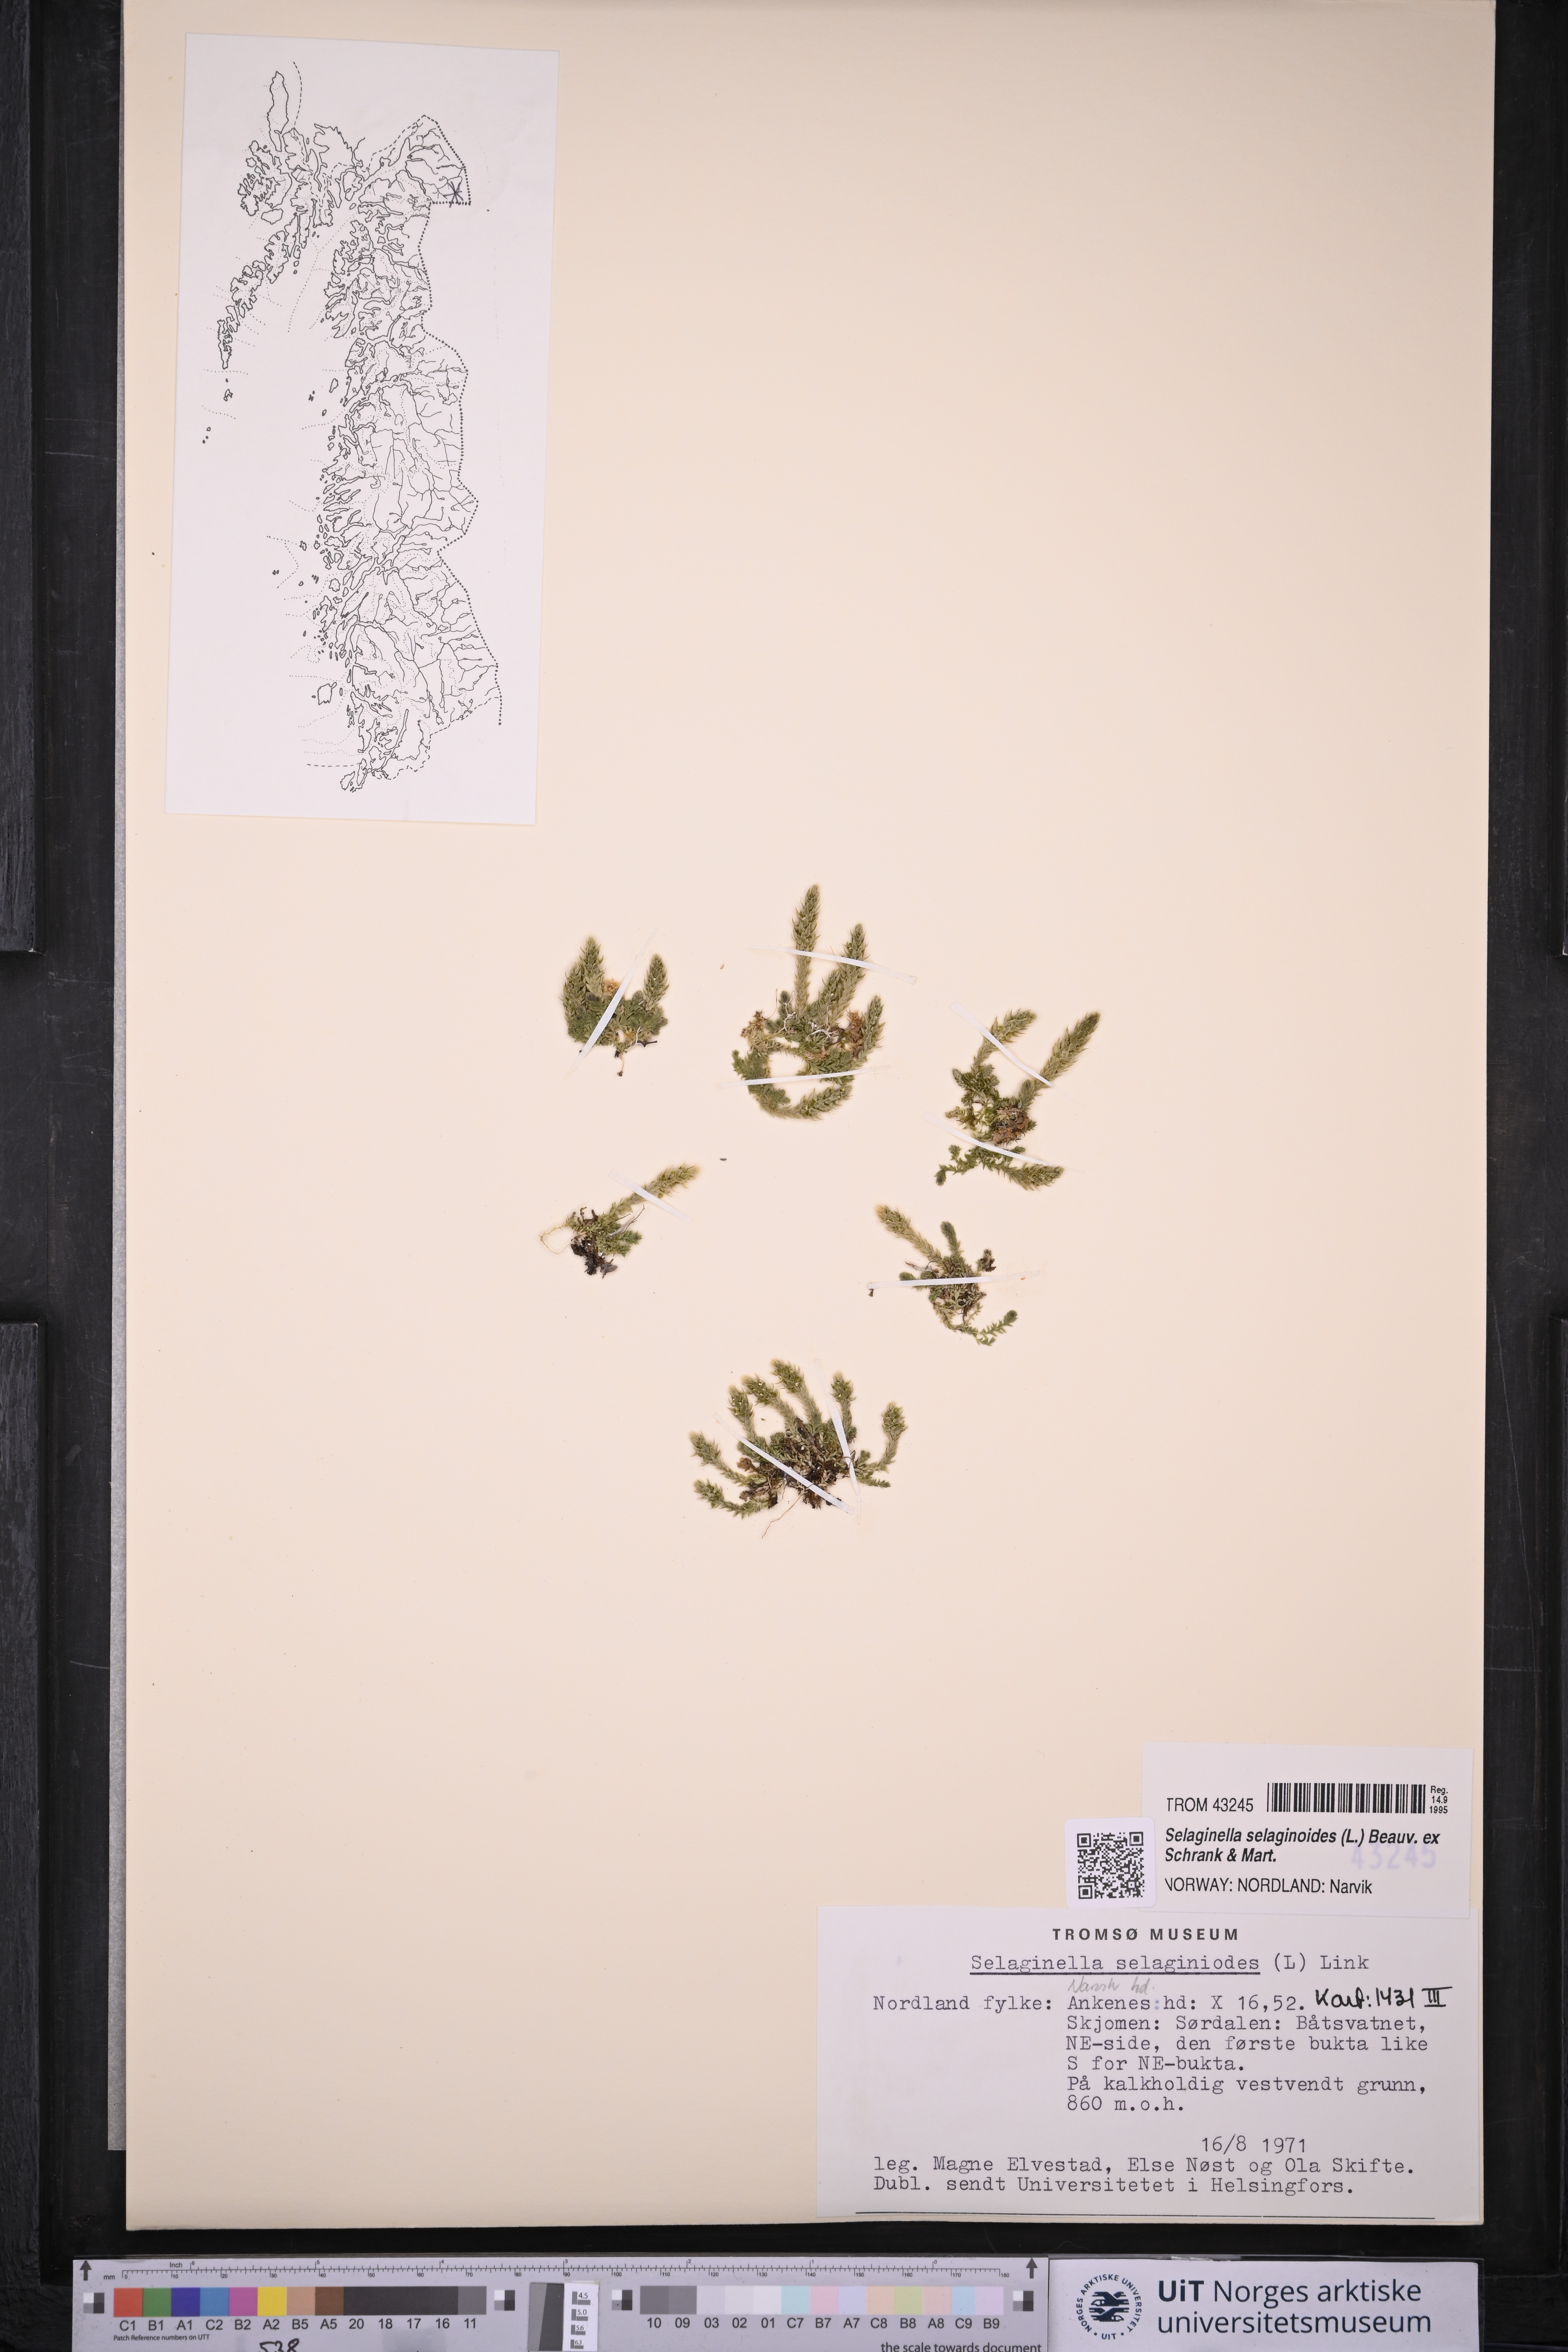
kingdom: Plantae
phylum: Tracheophyta
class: Lycopodiopsida
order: Selaginellales
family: Selaginellaceae
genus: Selaginella
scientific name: Selaginella selaginoides
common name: Prickly mountain-moss
